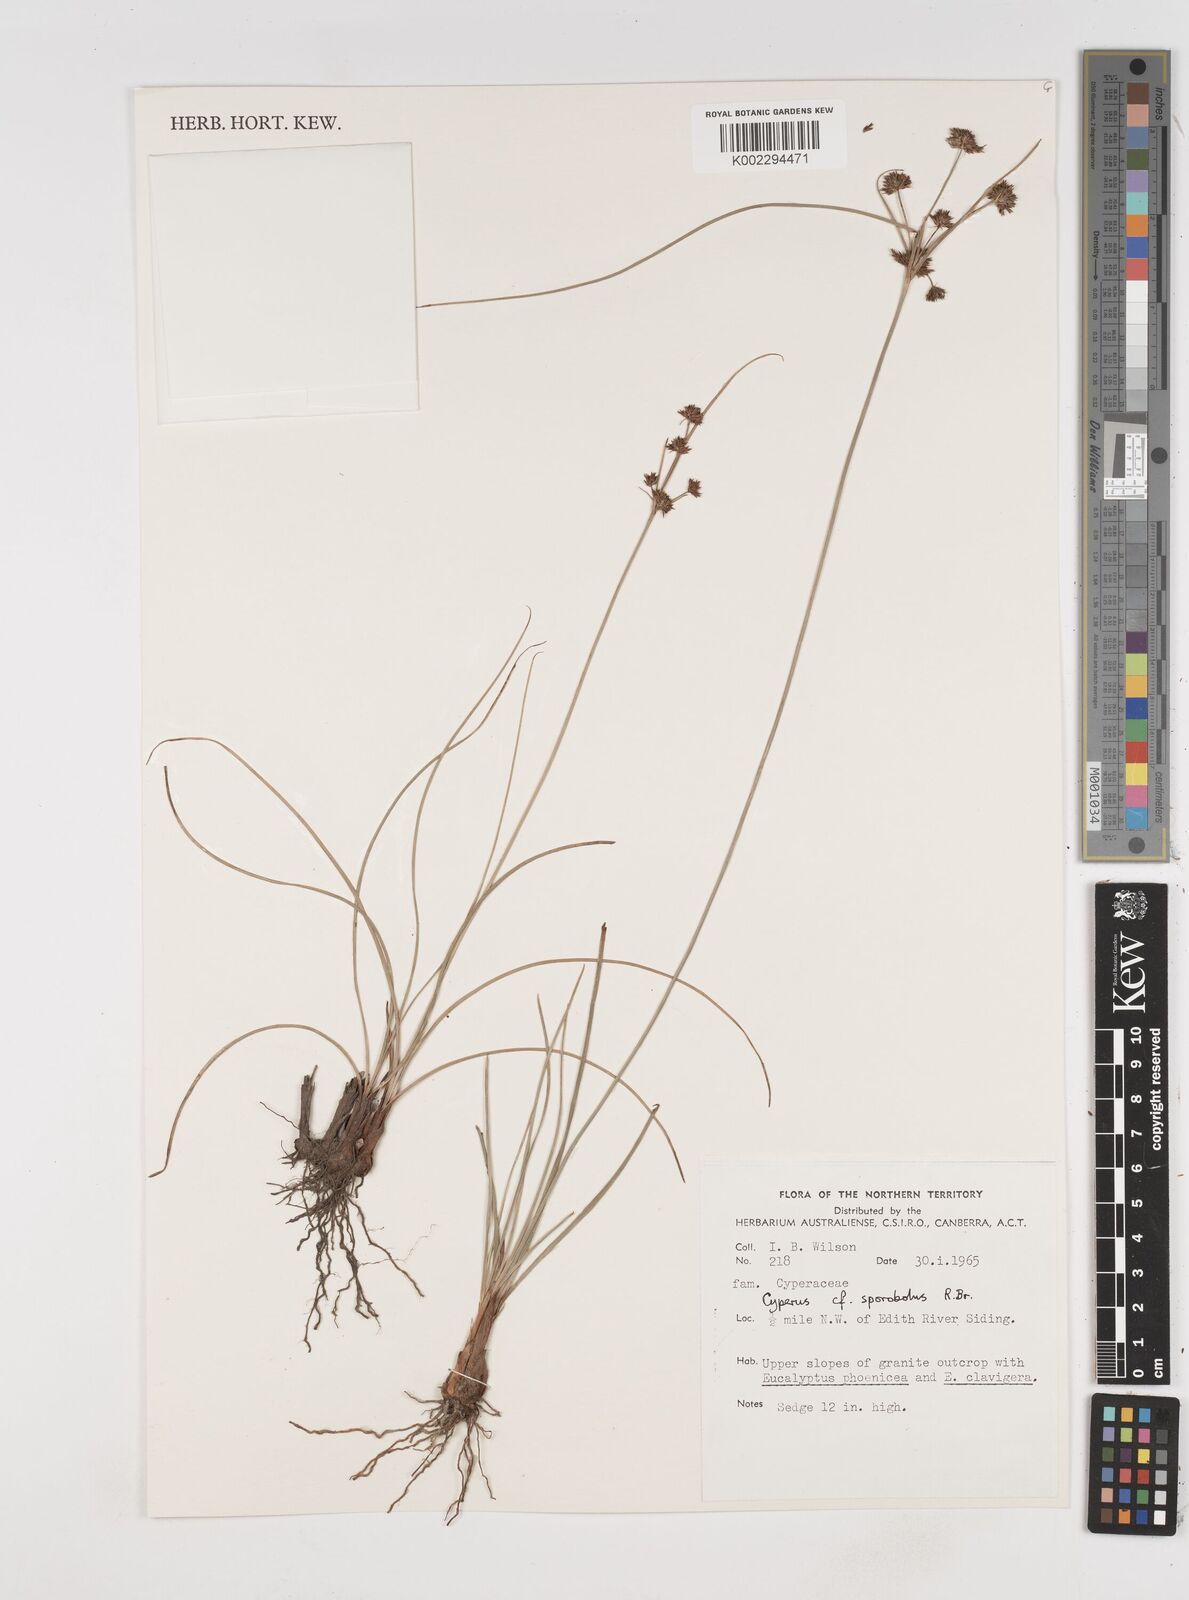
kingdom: Plantae
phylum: Tracheophyta
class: Liliopsida
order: Poales
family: Cyperaceae
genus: Cyperus
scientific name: Cyperus sporobolus
